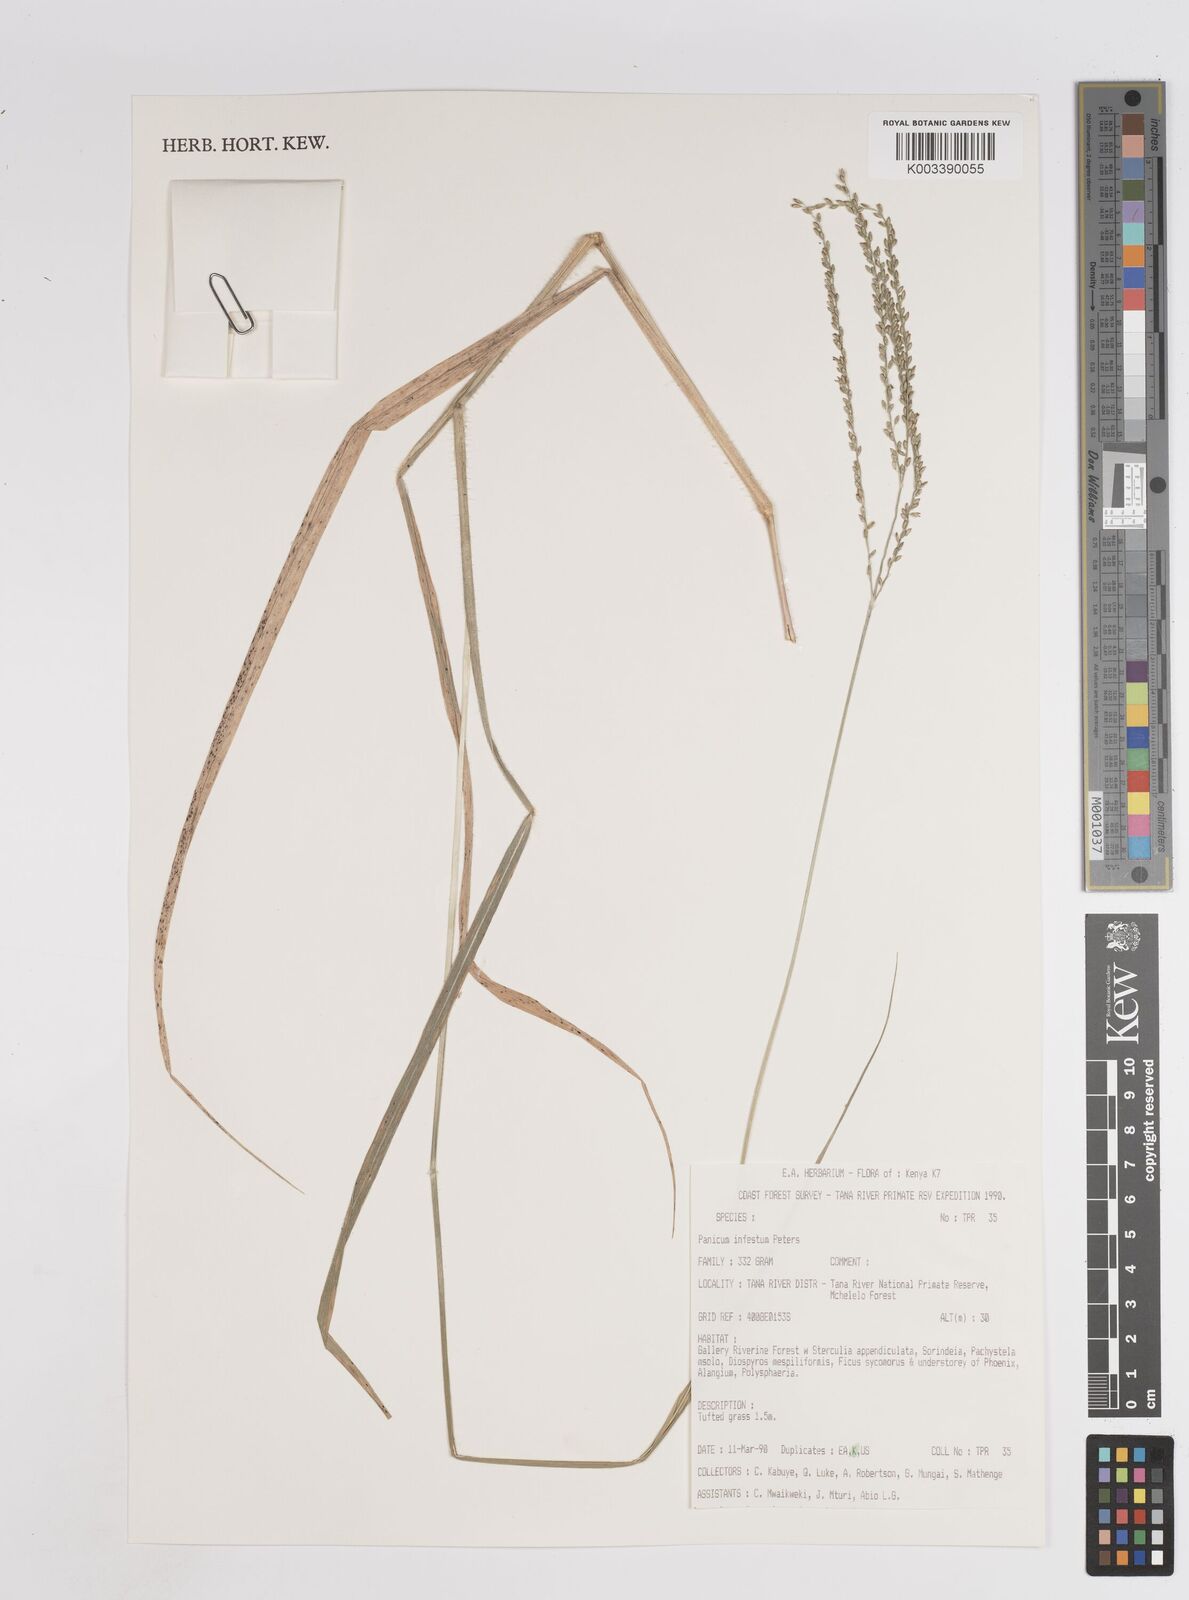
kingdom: Plantae
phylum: Tracheophyta
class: Liliopsida
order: Poales
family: Poaceae
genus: Megathyrsus
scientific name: Megathyrsus infestus
